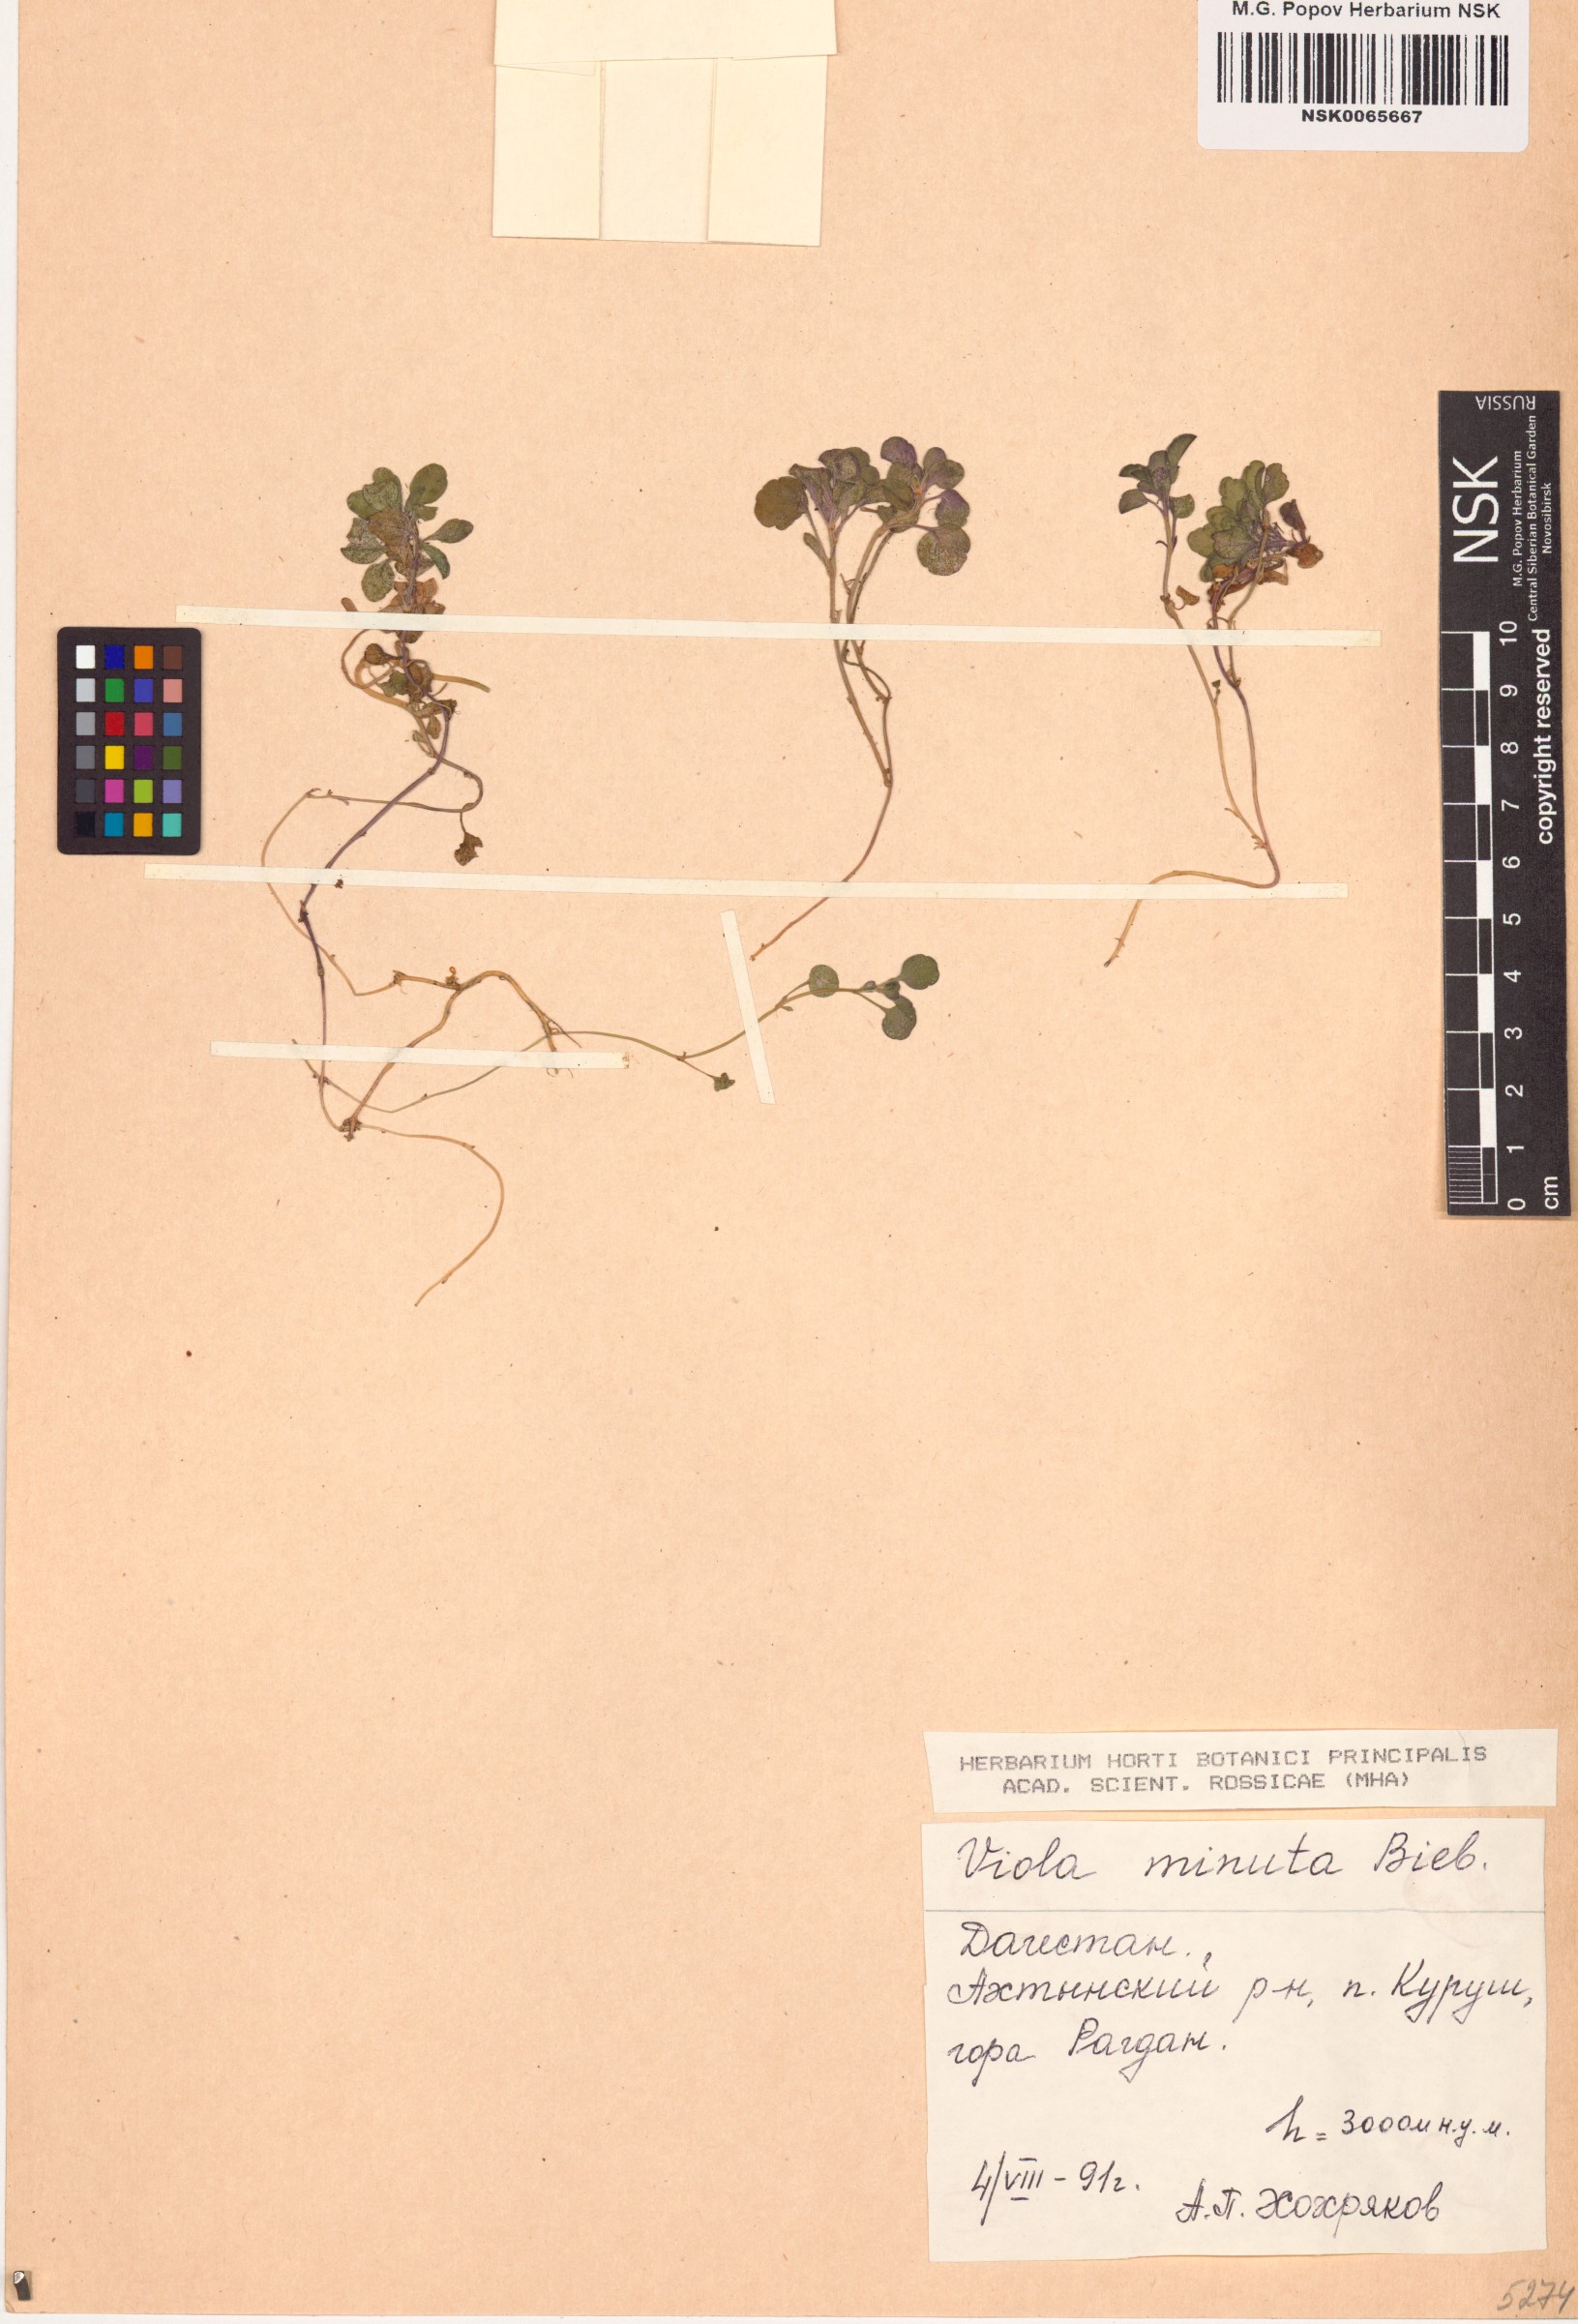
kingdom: Plantae
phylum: Tracheophyta
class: Magnoliopsida
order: Malpighiales
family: Violaceae
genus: Viola
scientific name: Viola minuta
